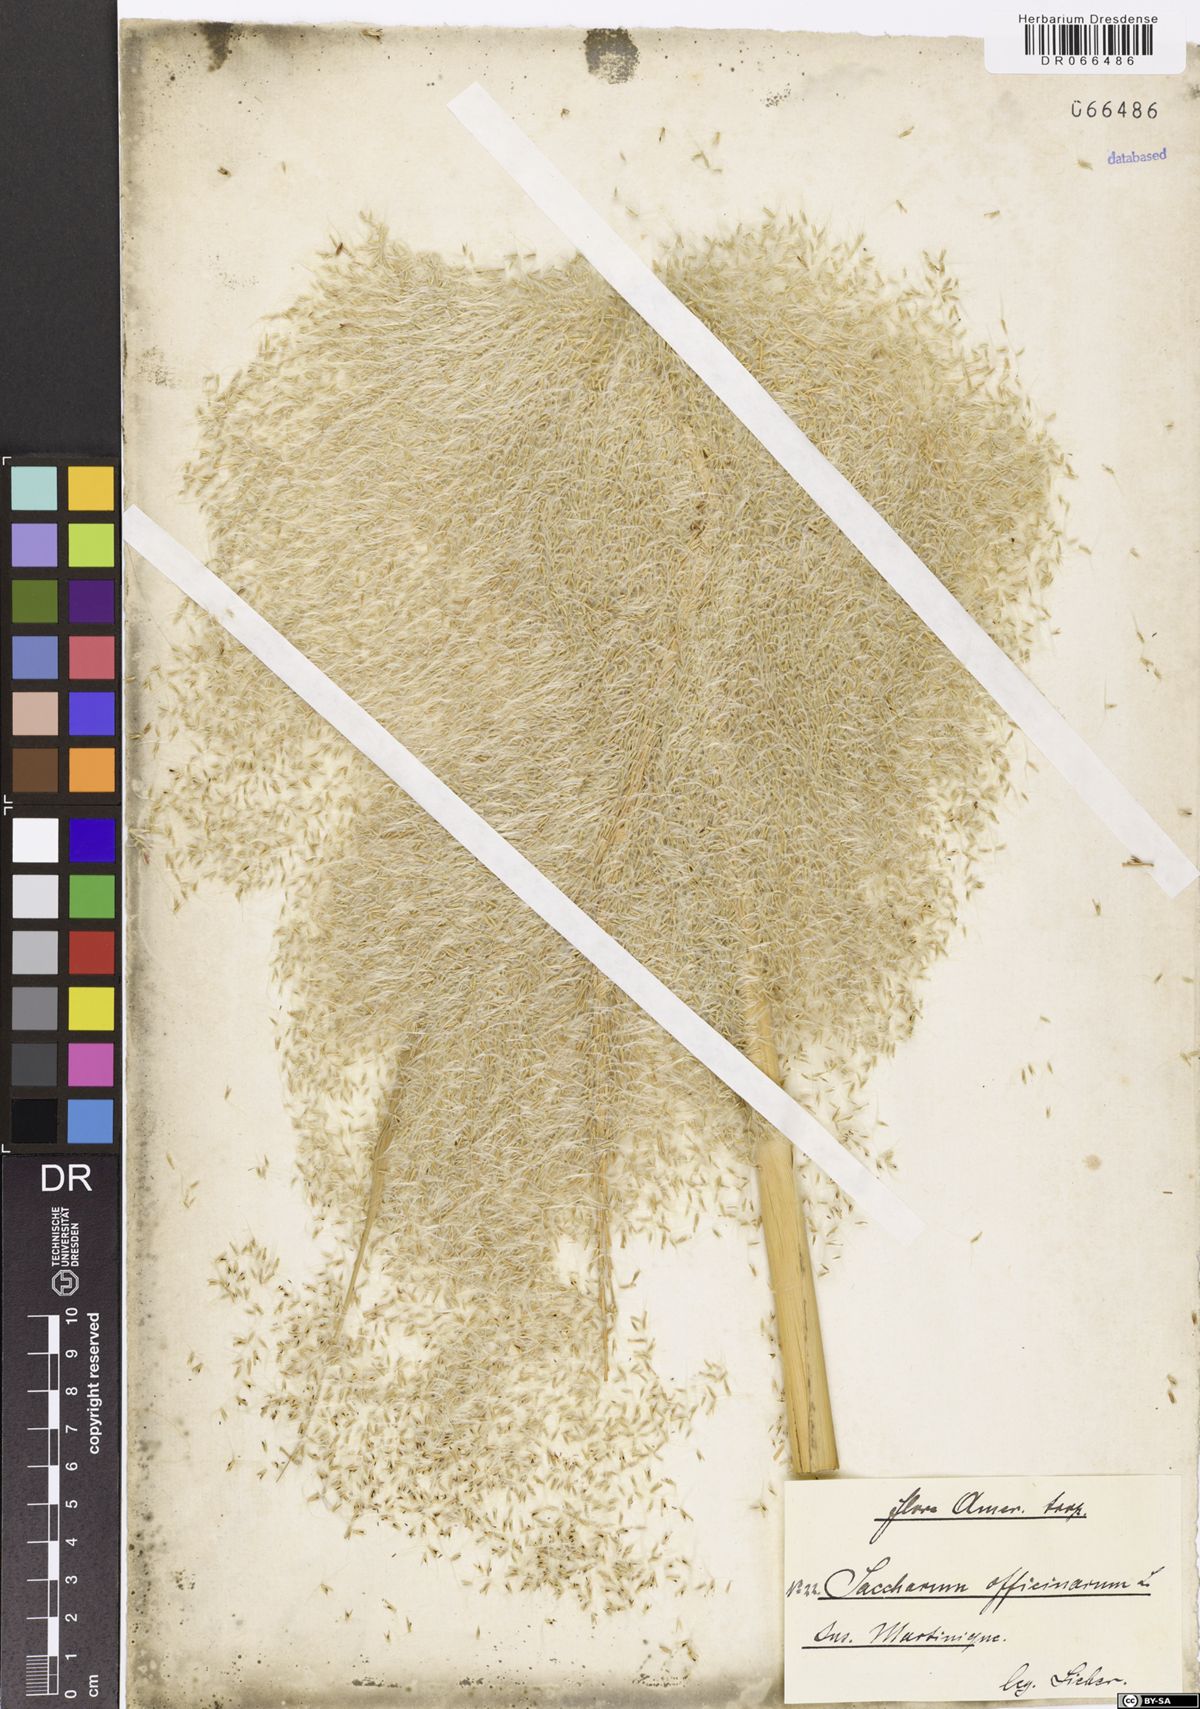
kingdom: Plantae
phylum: Tracheophyta
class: Liliopsida
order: Poales
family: Poaceae
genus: Saccharum
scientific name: Saccharum officinarum
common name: Sugarcane
